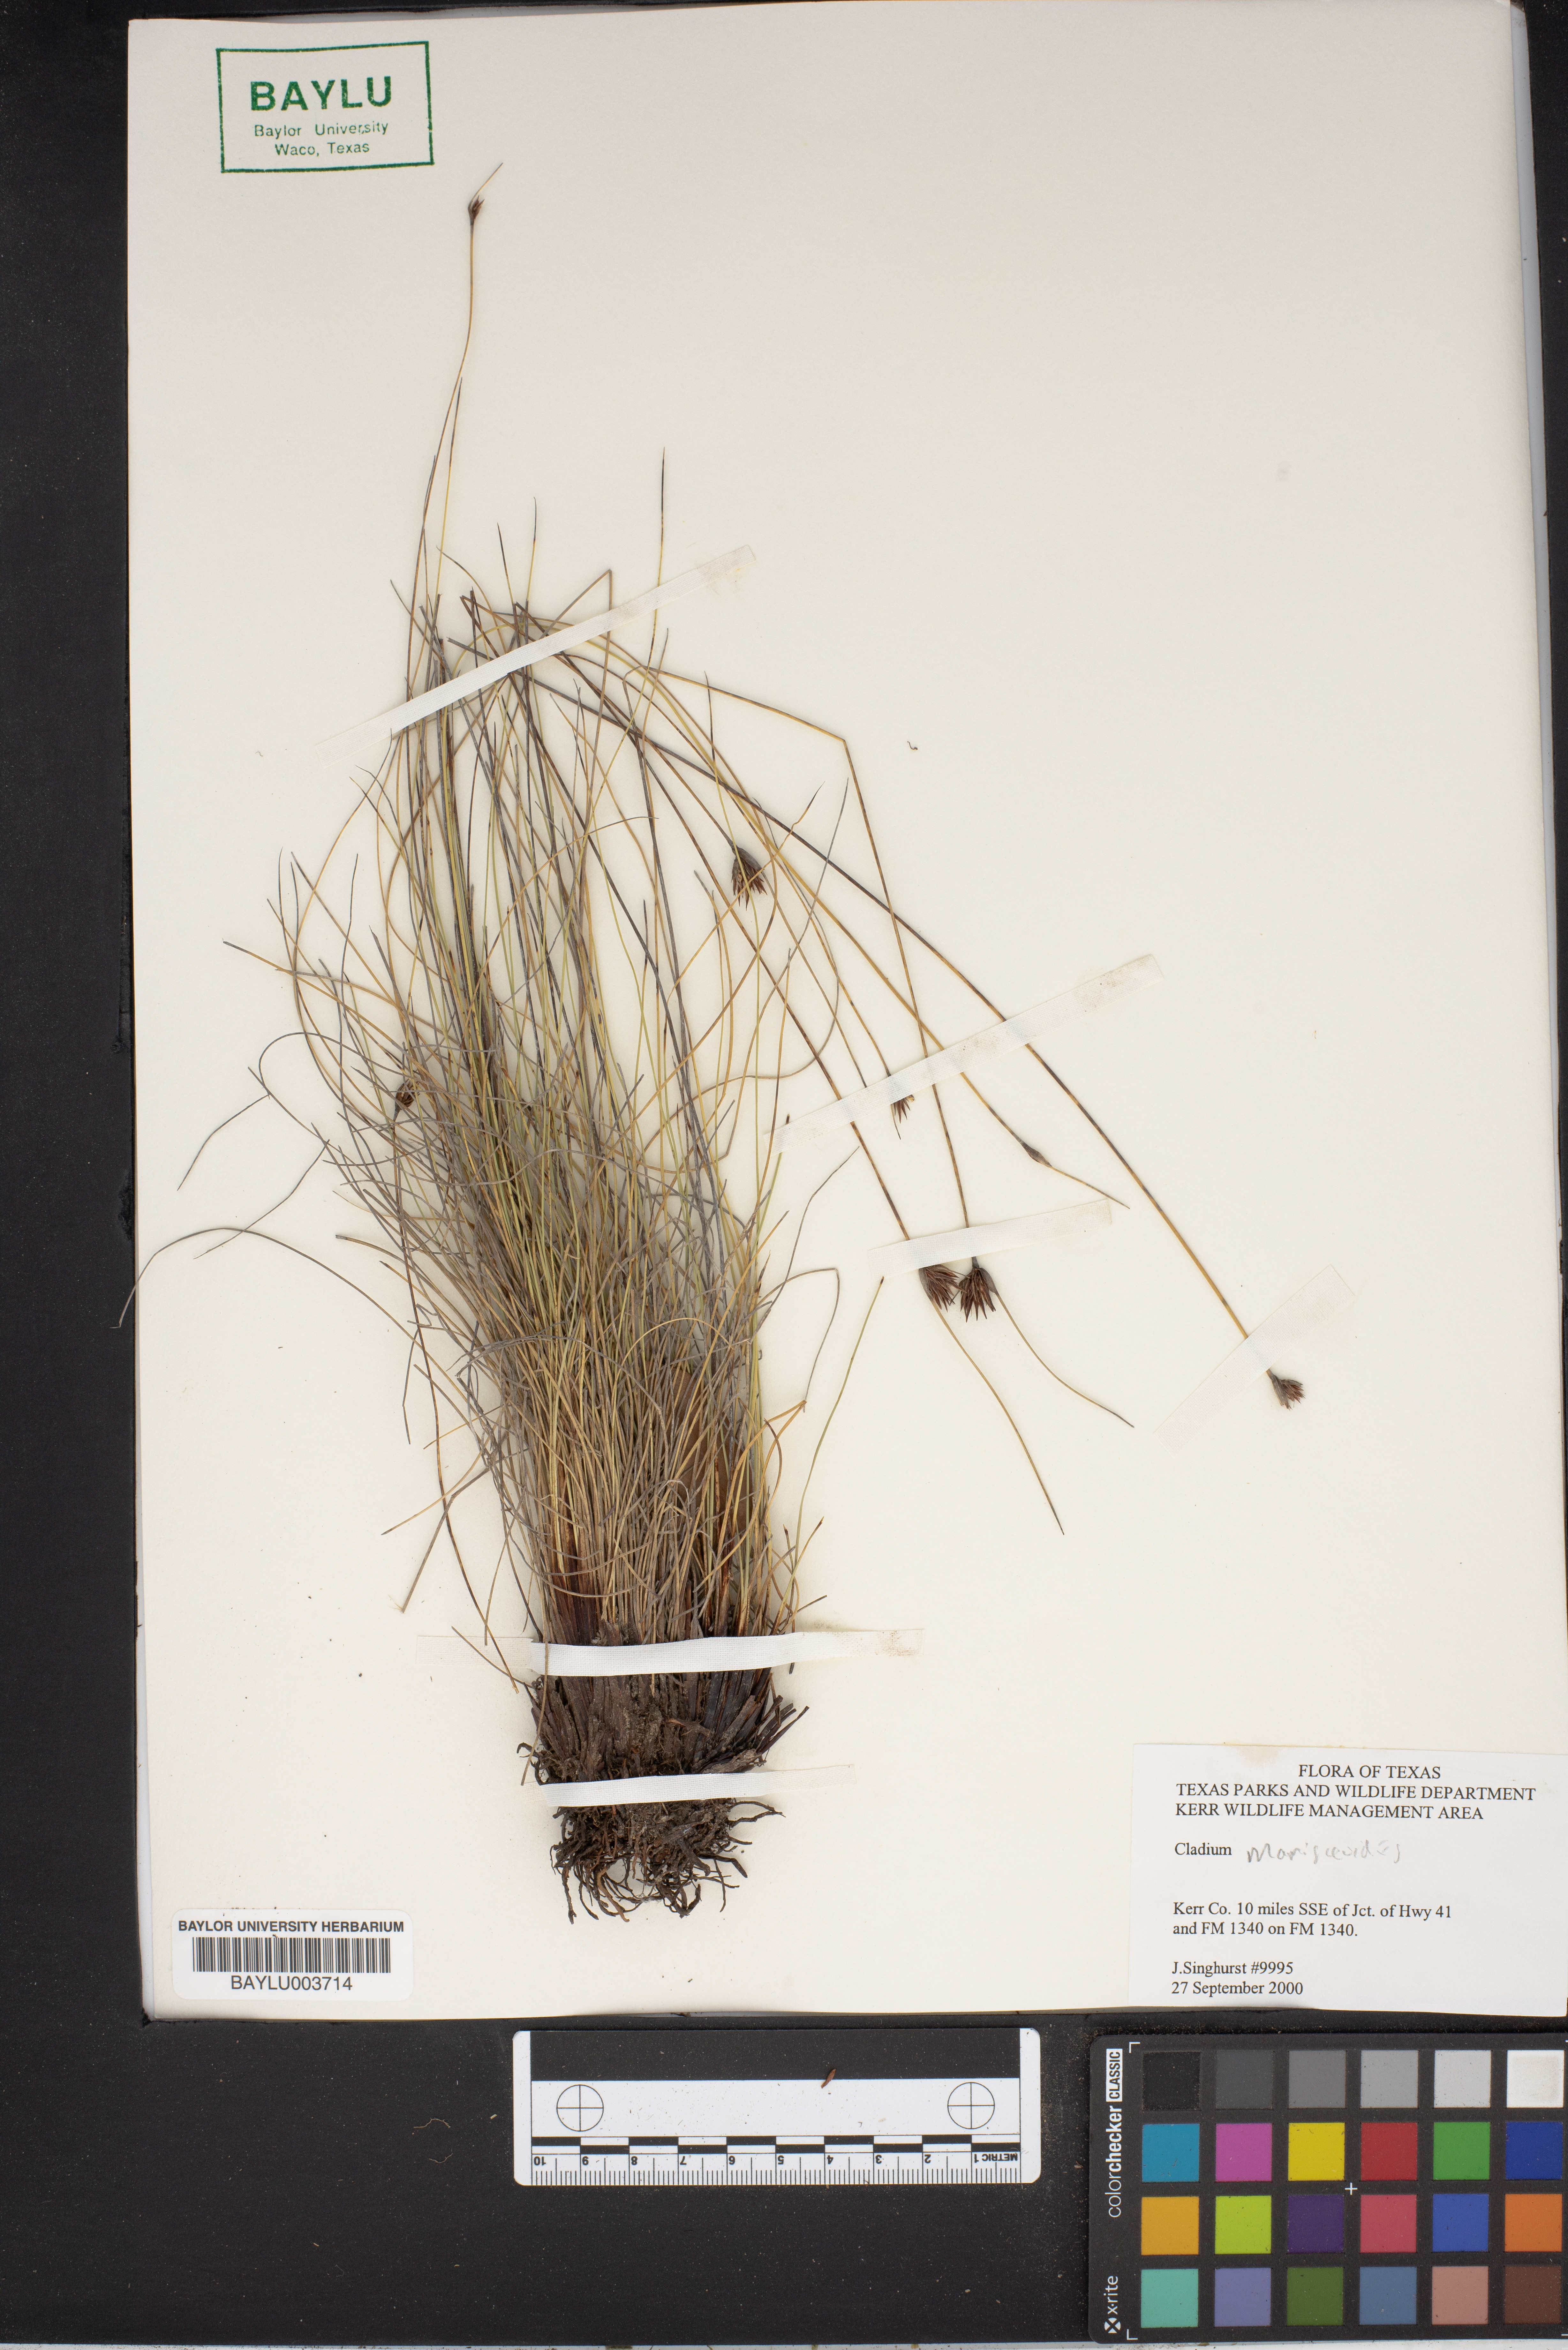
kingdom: Plantae
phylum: Tracheophyta
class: Liliopsida
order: Poales
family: Cyperaceae
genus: Cladium
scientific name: Cladium mariscoides
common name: Smooth sawgrass
